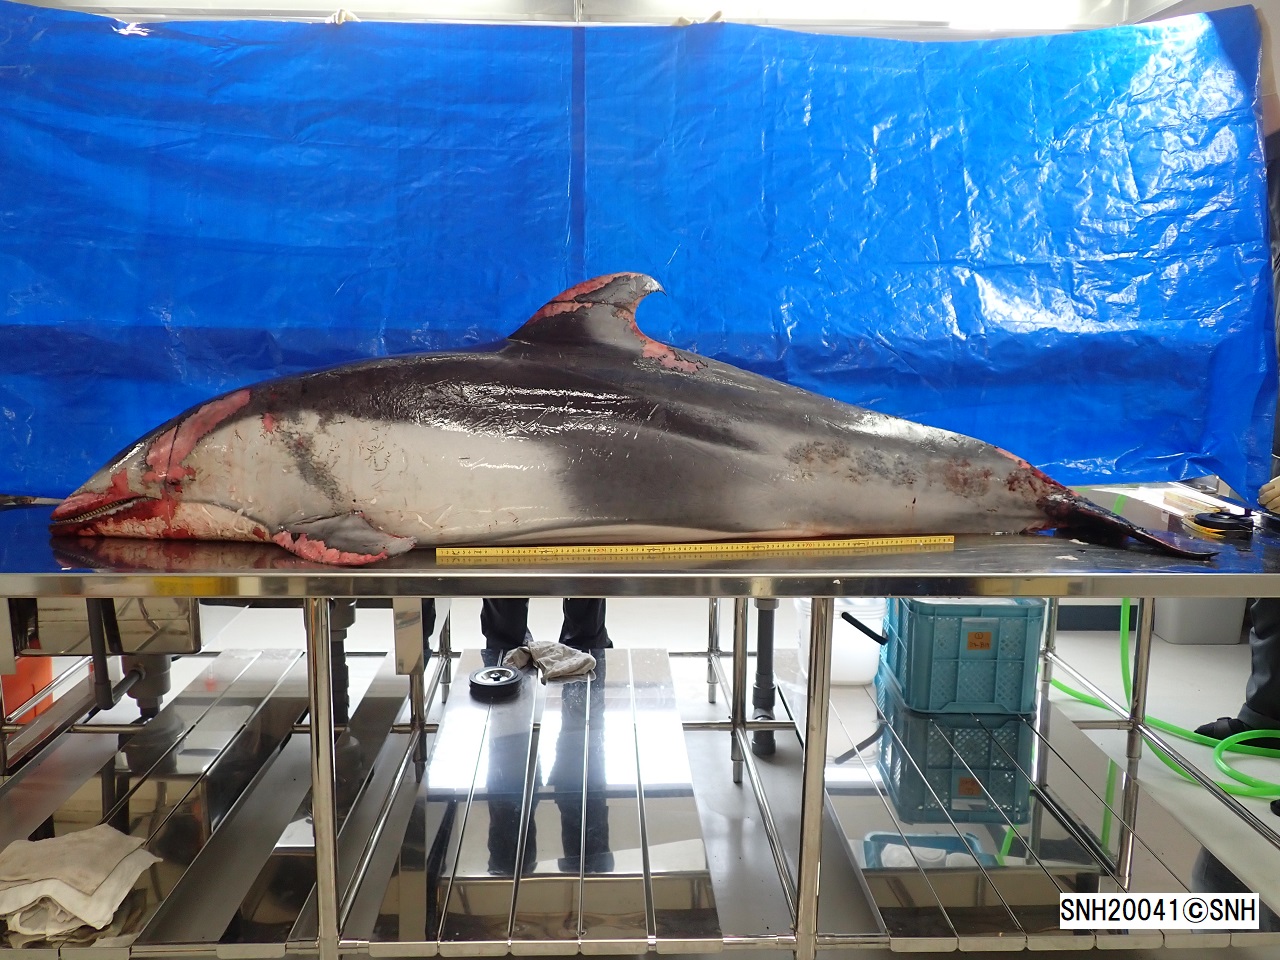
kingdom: Animalia
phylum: Chordata
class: Mammalia
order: Cetacea
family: Delphinidae
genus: Lagenorhynchus
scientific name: Lagenorhynchus obliquidens
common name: Pacific white-sided dolphin
